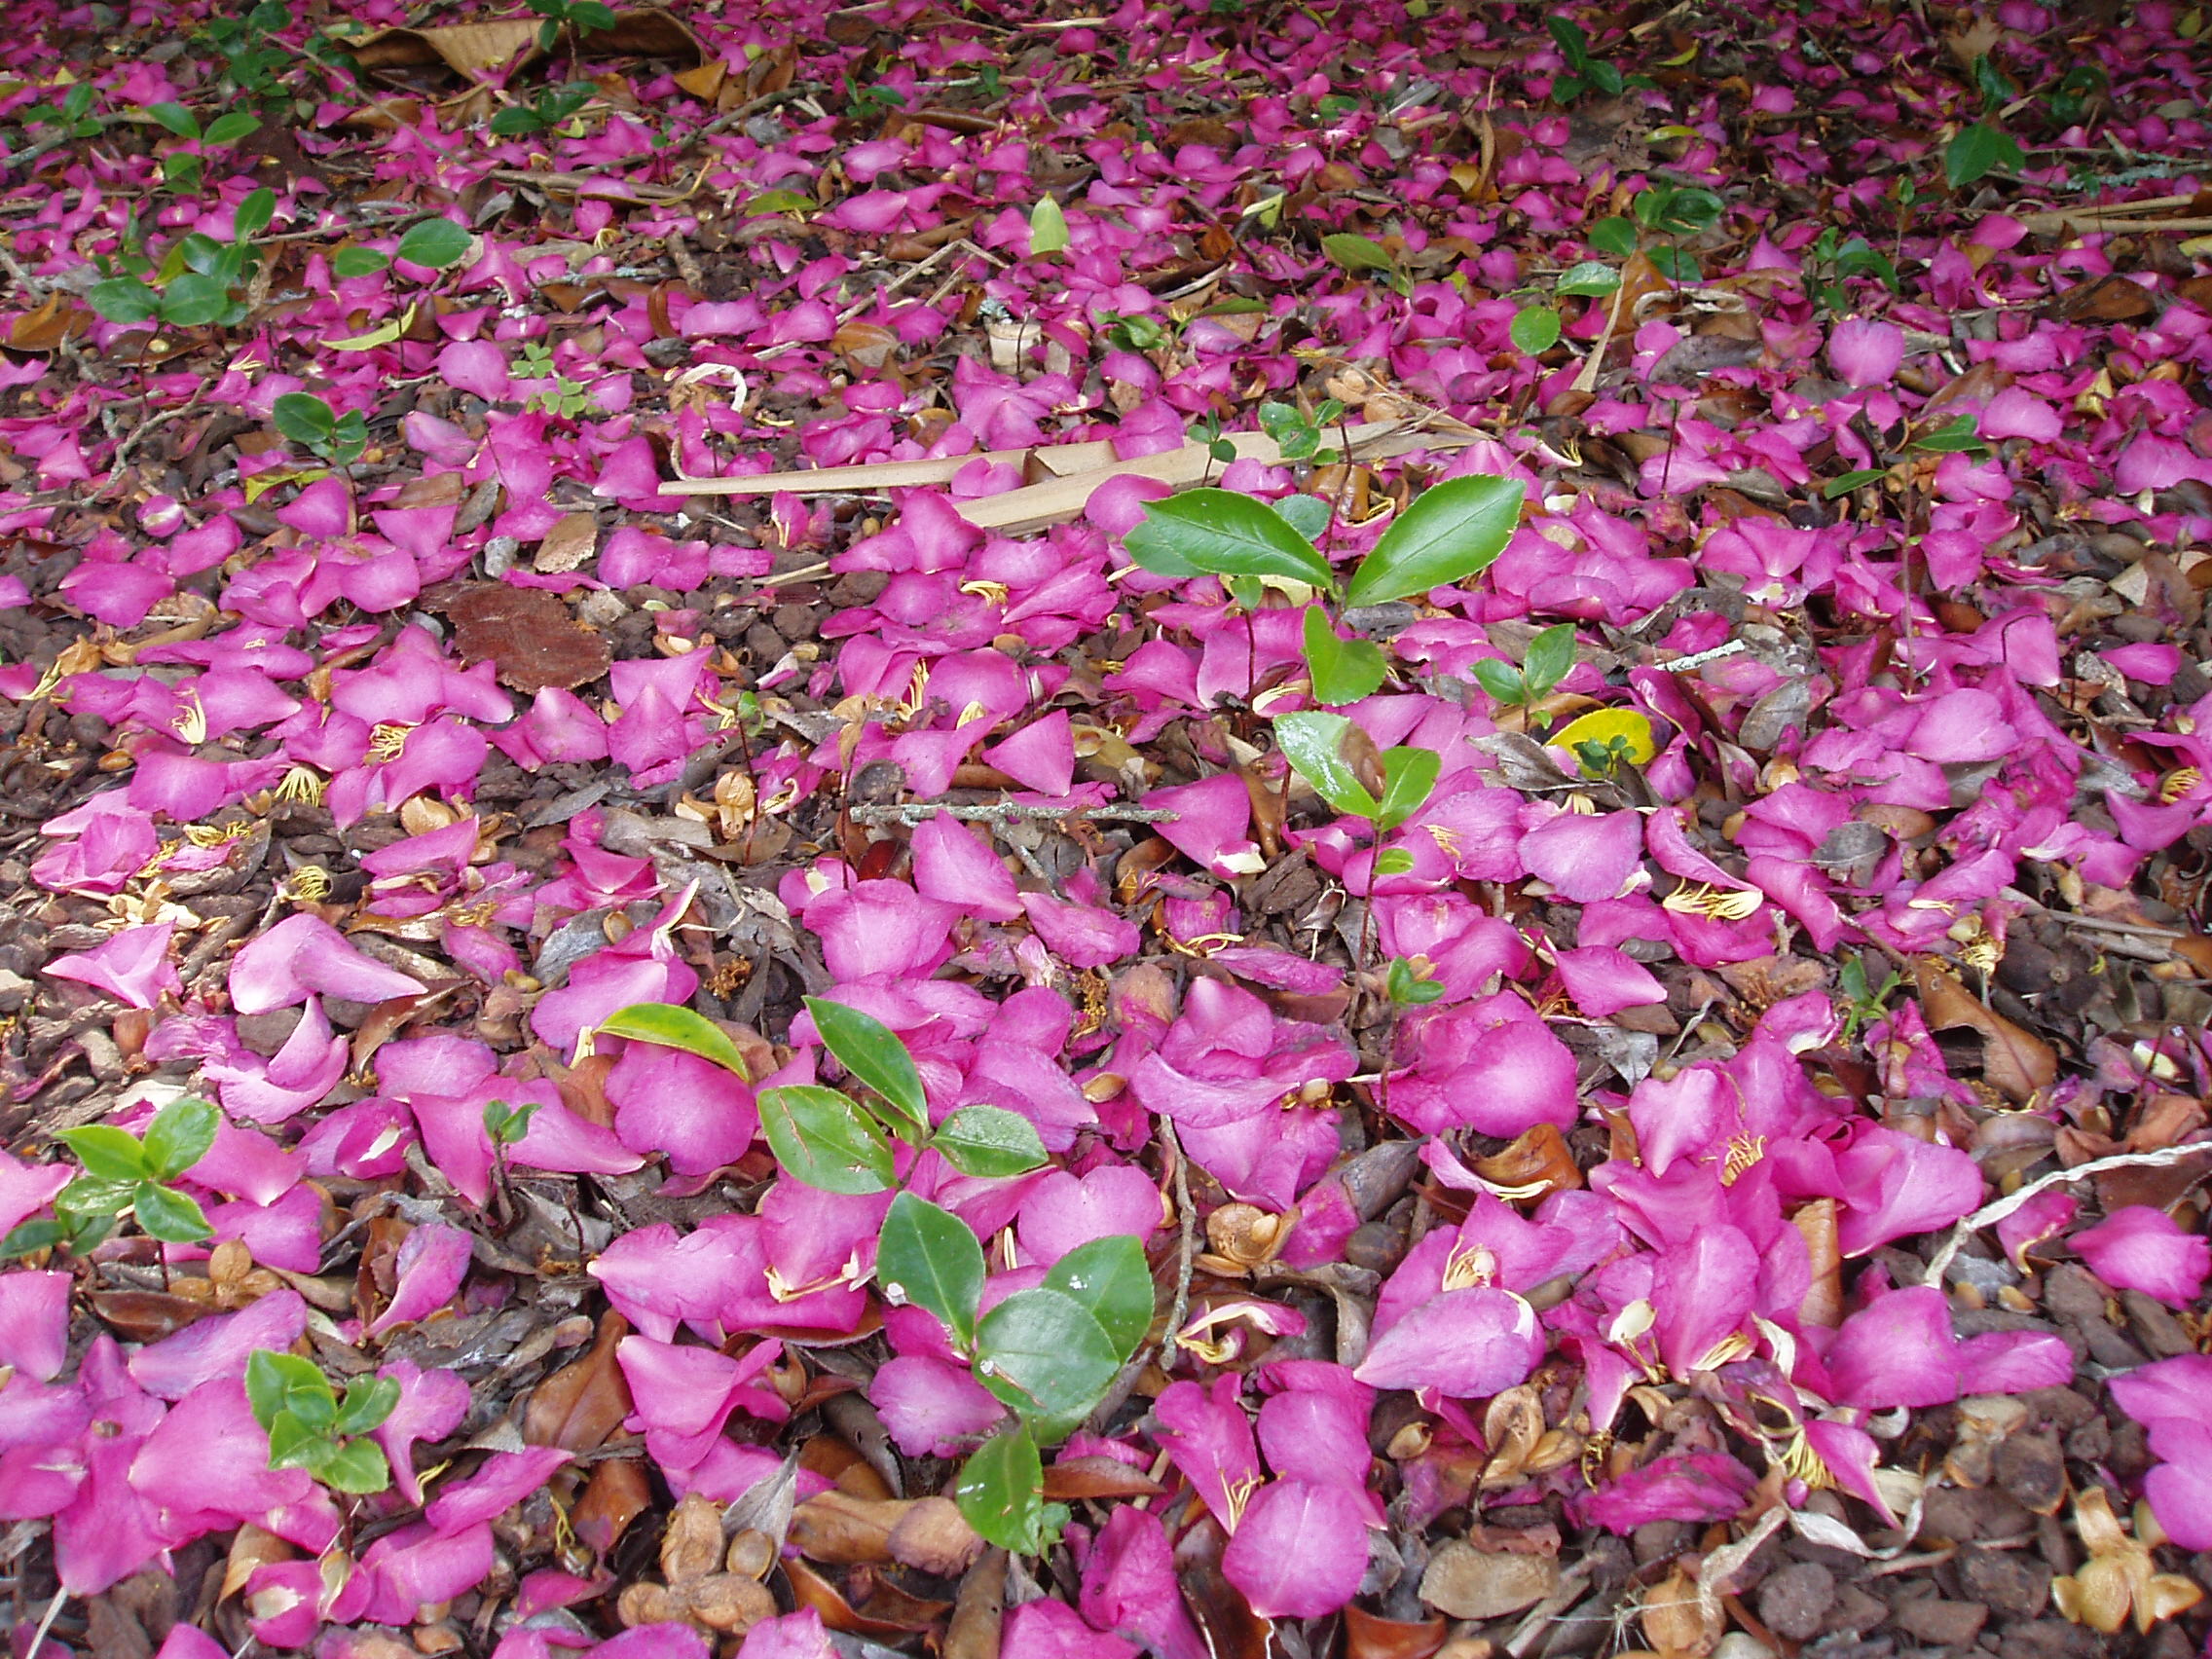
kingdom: Plantae
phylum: Tracheophyta
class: Magnoliopsida
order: Ericales
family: Theaceae
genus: Camellia
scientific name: Camellia sasanqua
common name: Sasanqua camellia
